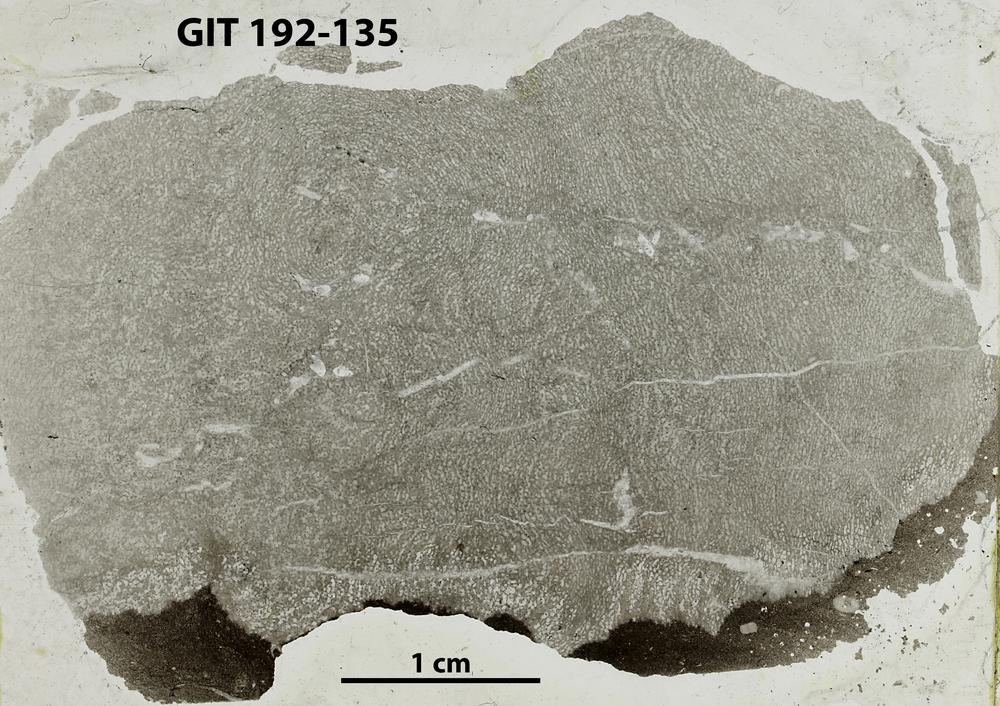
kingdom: Animalia
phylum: Porifera
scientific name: Porifera
